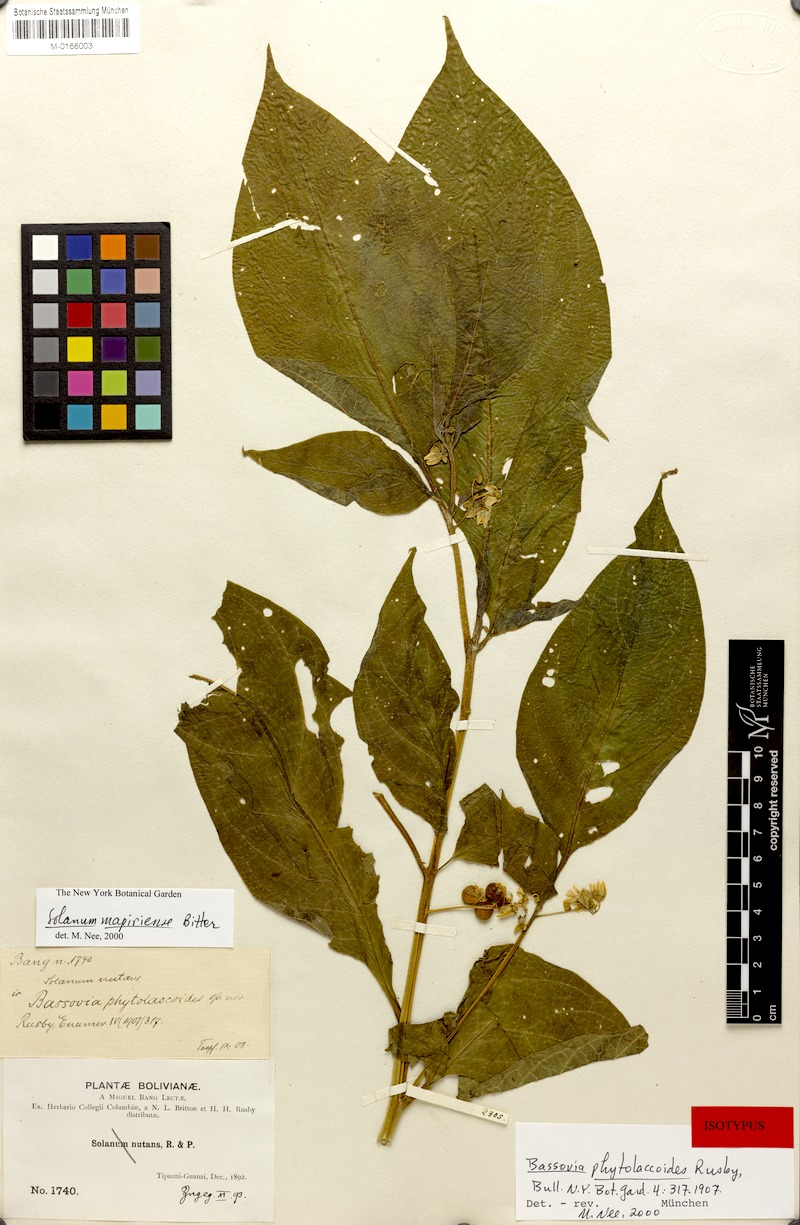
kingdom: Plantae
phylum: Tracheophyta
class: Magnoliopsida
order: Solanales
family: Solanaceae
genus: Solanum
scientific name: Solanum mapiriense
